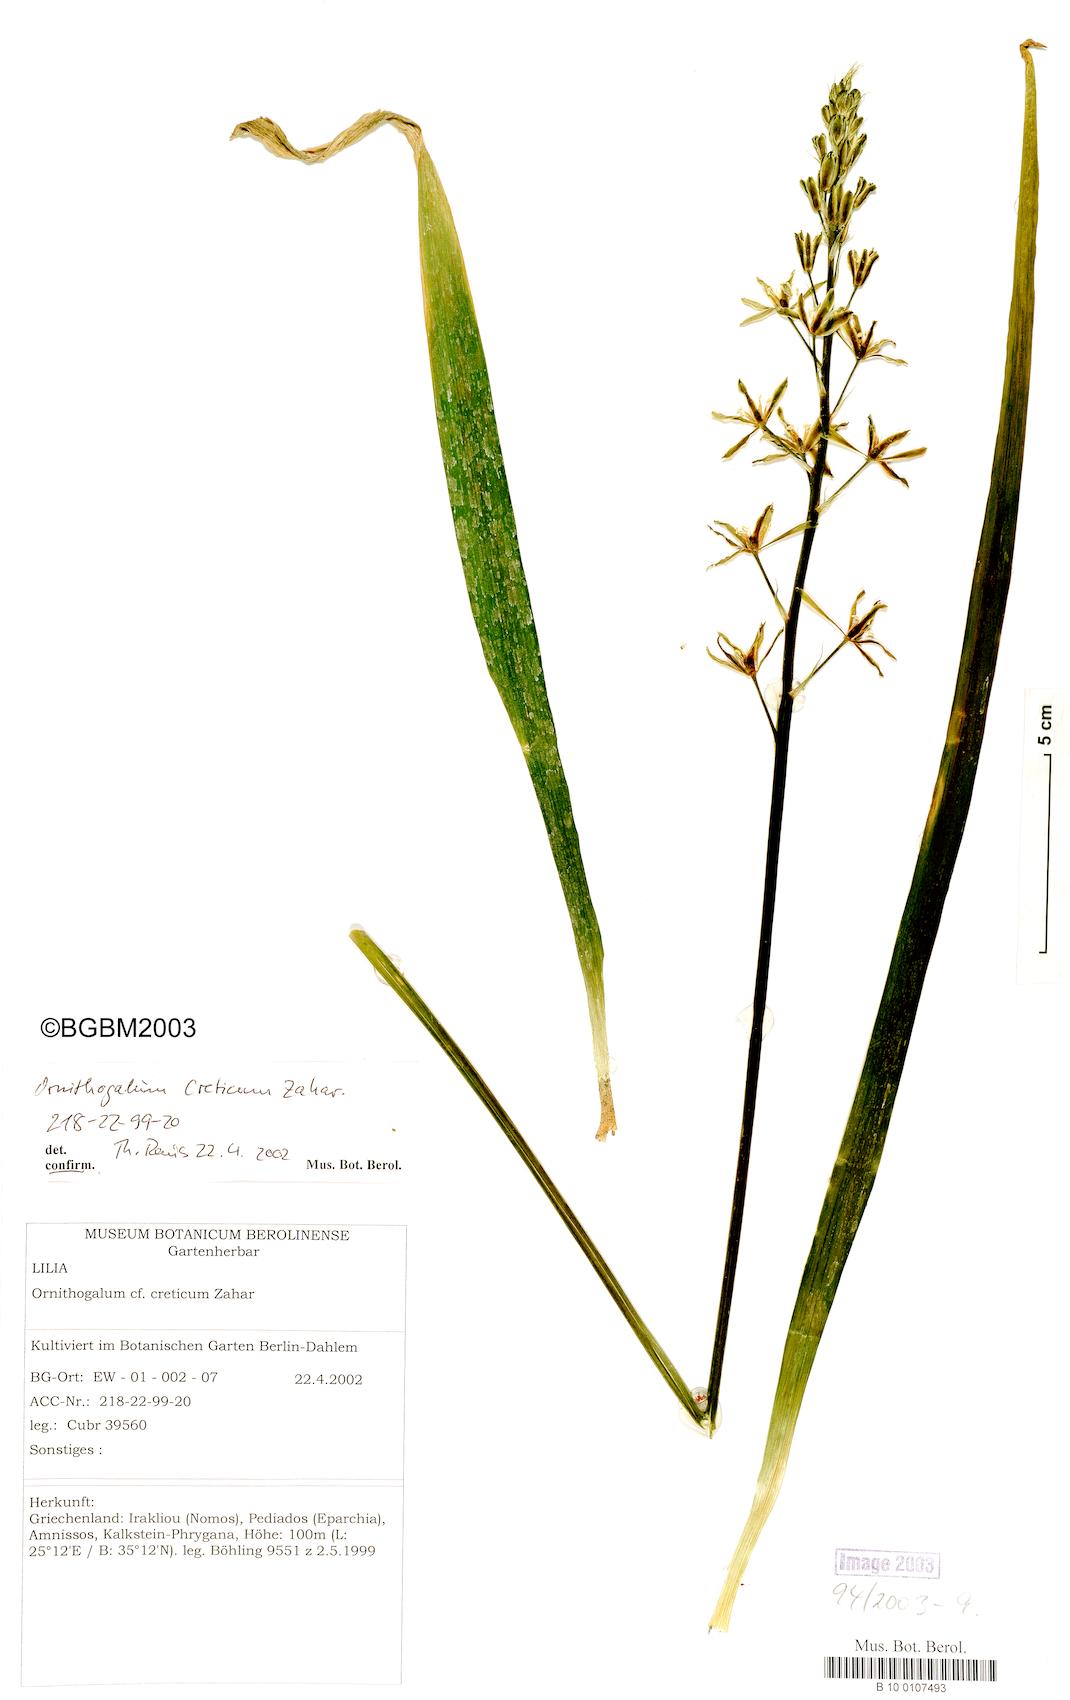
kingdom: Plantae
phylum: Tracheophyta
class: Liliopsida
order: Asparagales
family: Asparagaceae
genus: Ornithogalum
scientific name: Ornithogalum creticum
